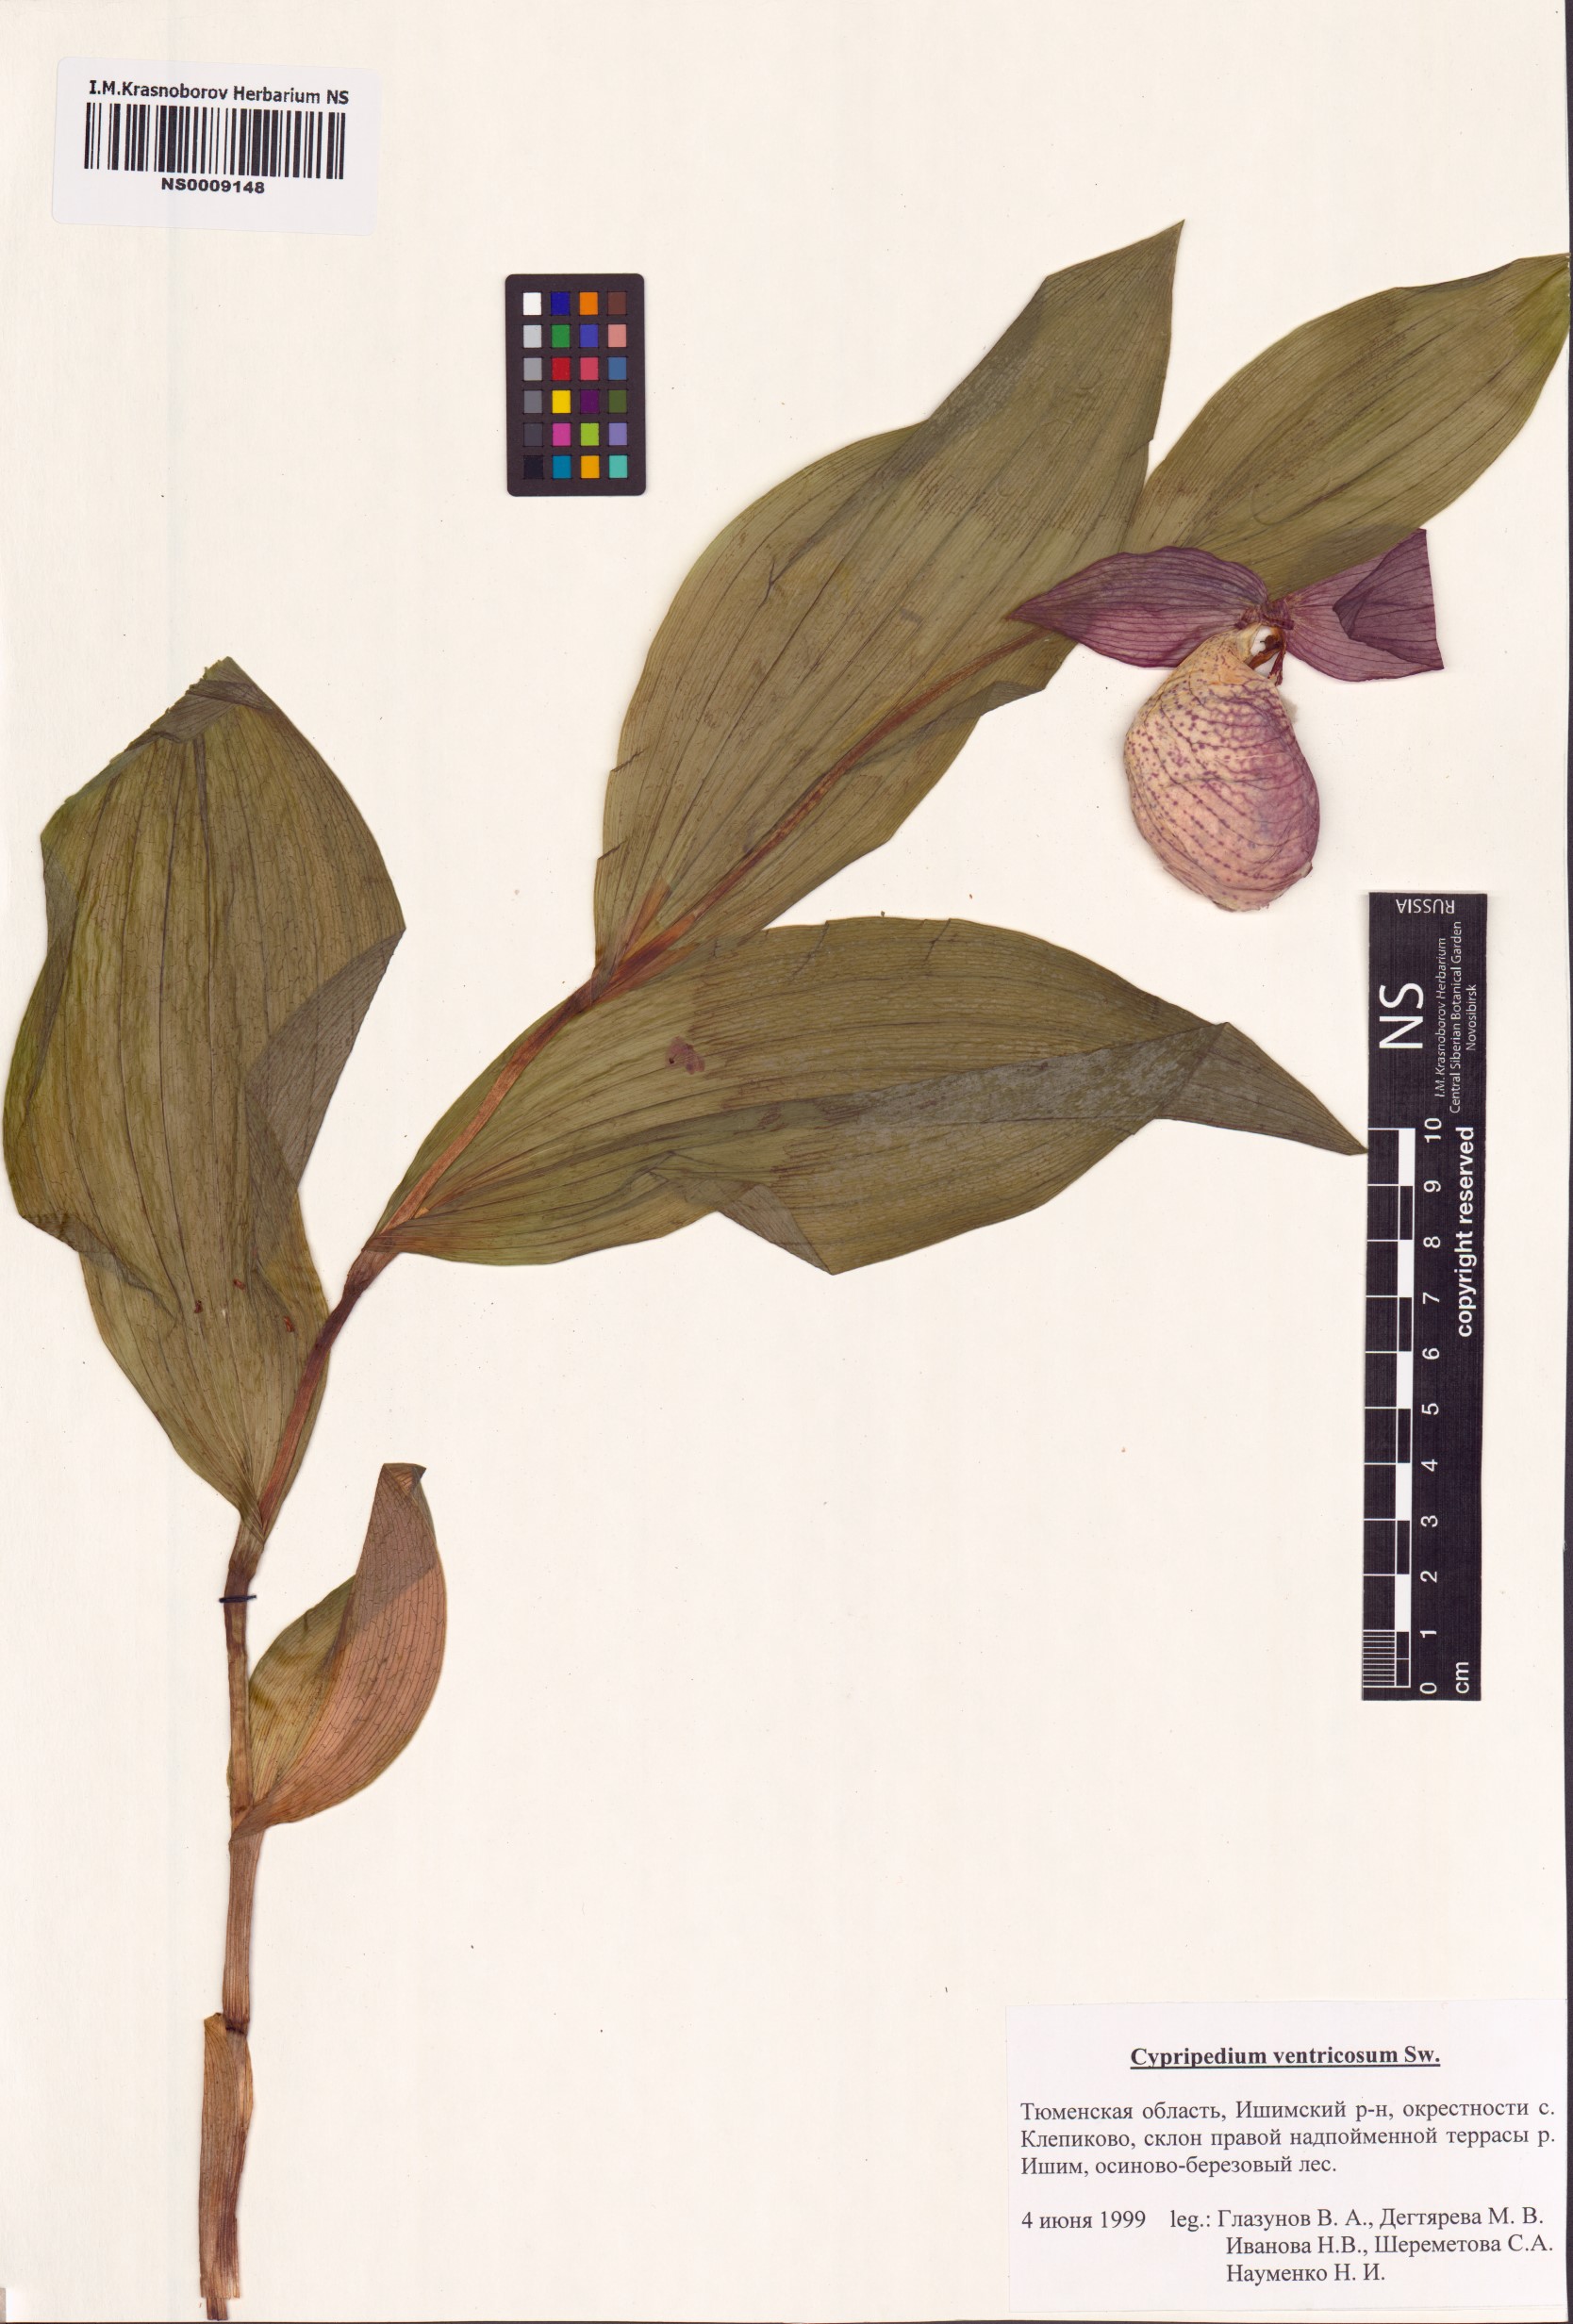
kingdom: Plantae
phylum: Tracheophyta
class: Liliopsida
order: Asparagales
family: Orchidaceae
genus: Cypripedium
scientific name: Cypripedium ventricosum
